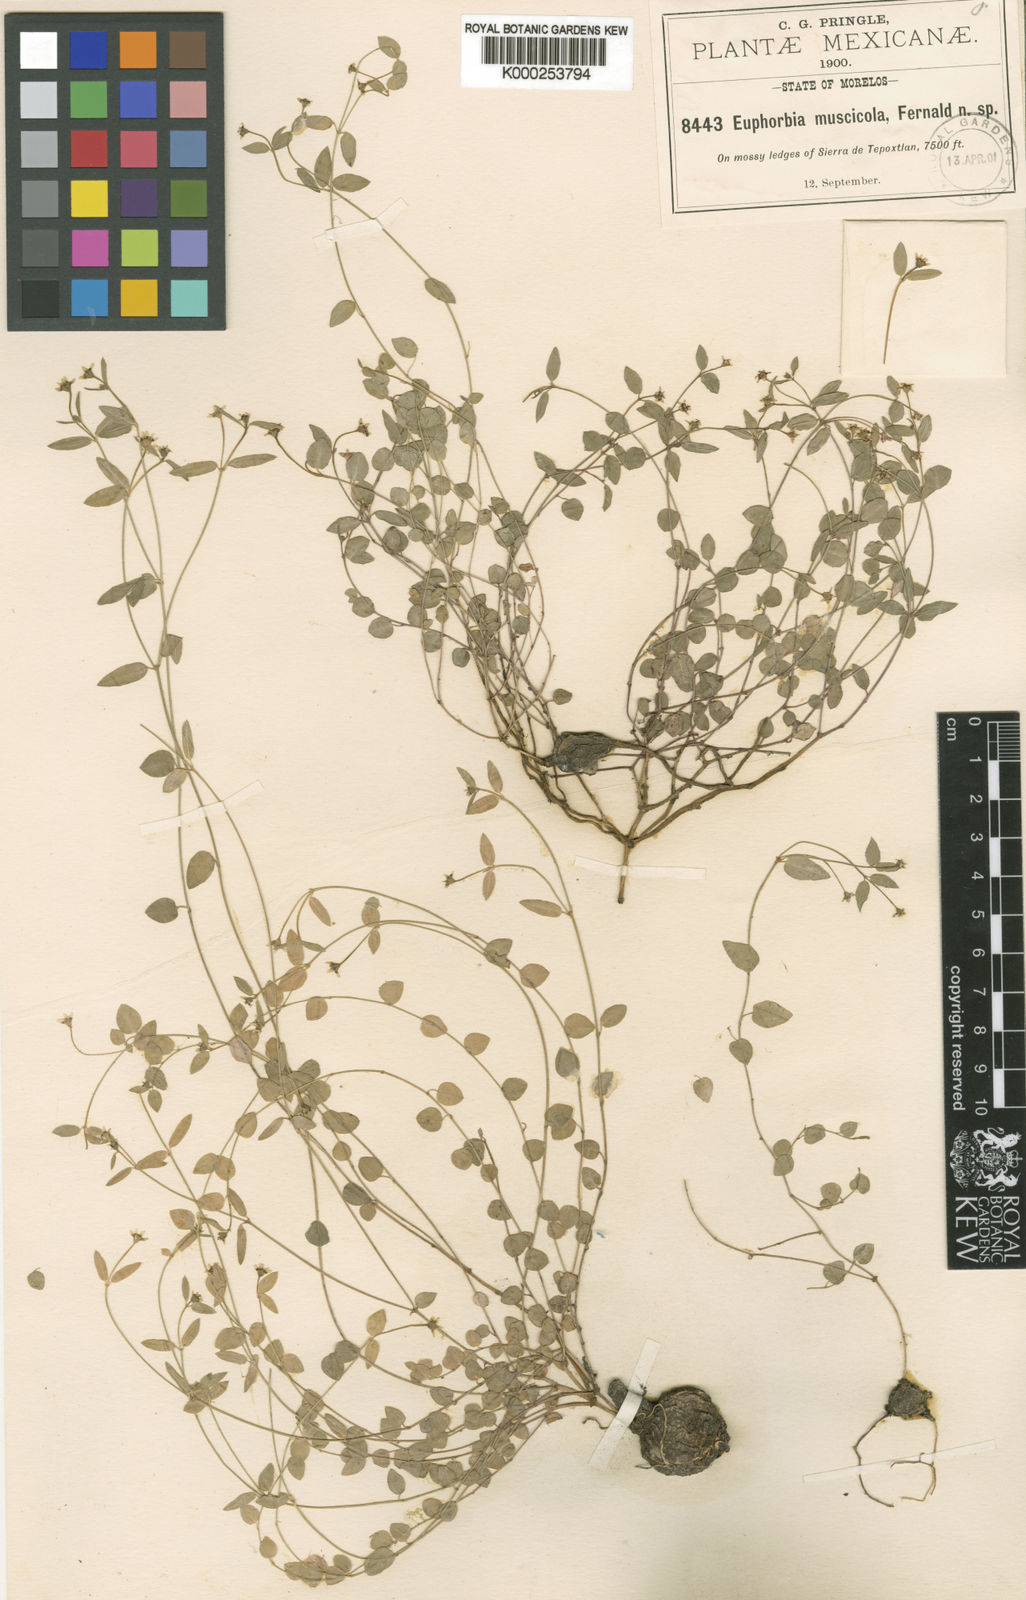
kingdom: Plantae
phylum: Tracheophyta
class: Magnoliopsida
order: Malpighiales
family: Euphorbiaceae
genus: Euphorbia
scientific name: Euphorbia muscicola
